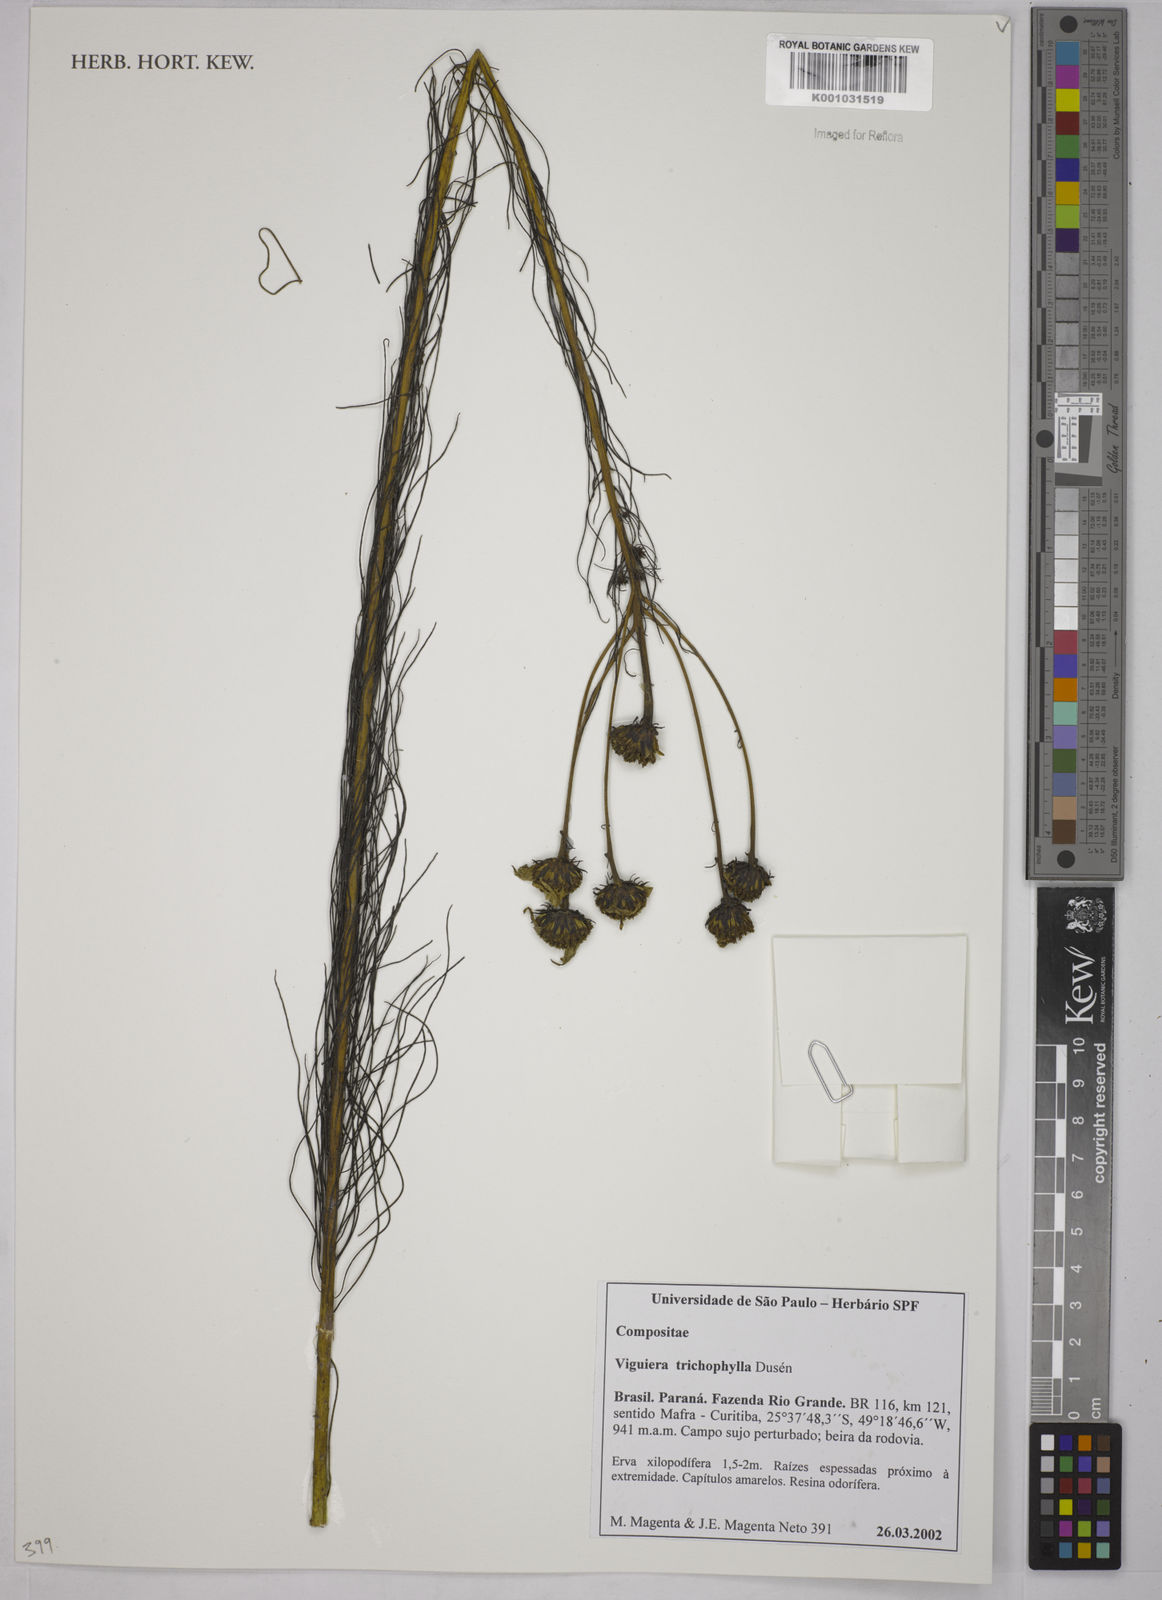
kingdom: Plantae
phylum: Tracheophyta
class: Magnoliopsida
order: Asterales
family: Asteraceae
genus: Viguiera
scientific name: Viguiera
